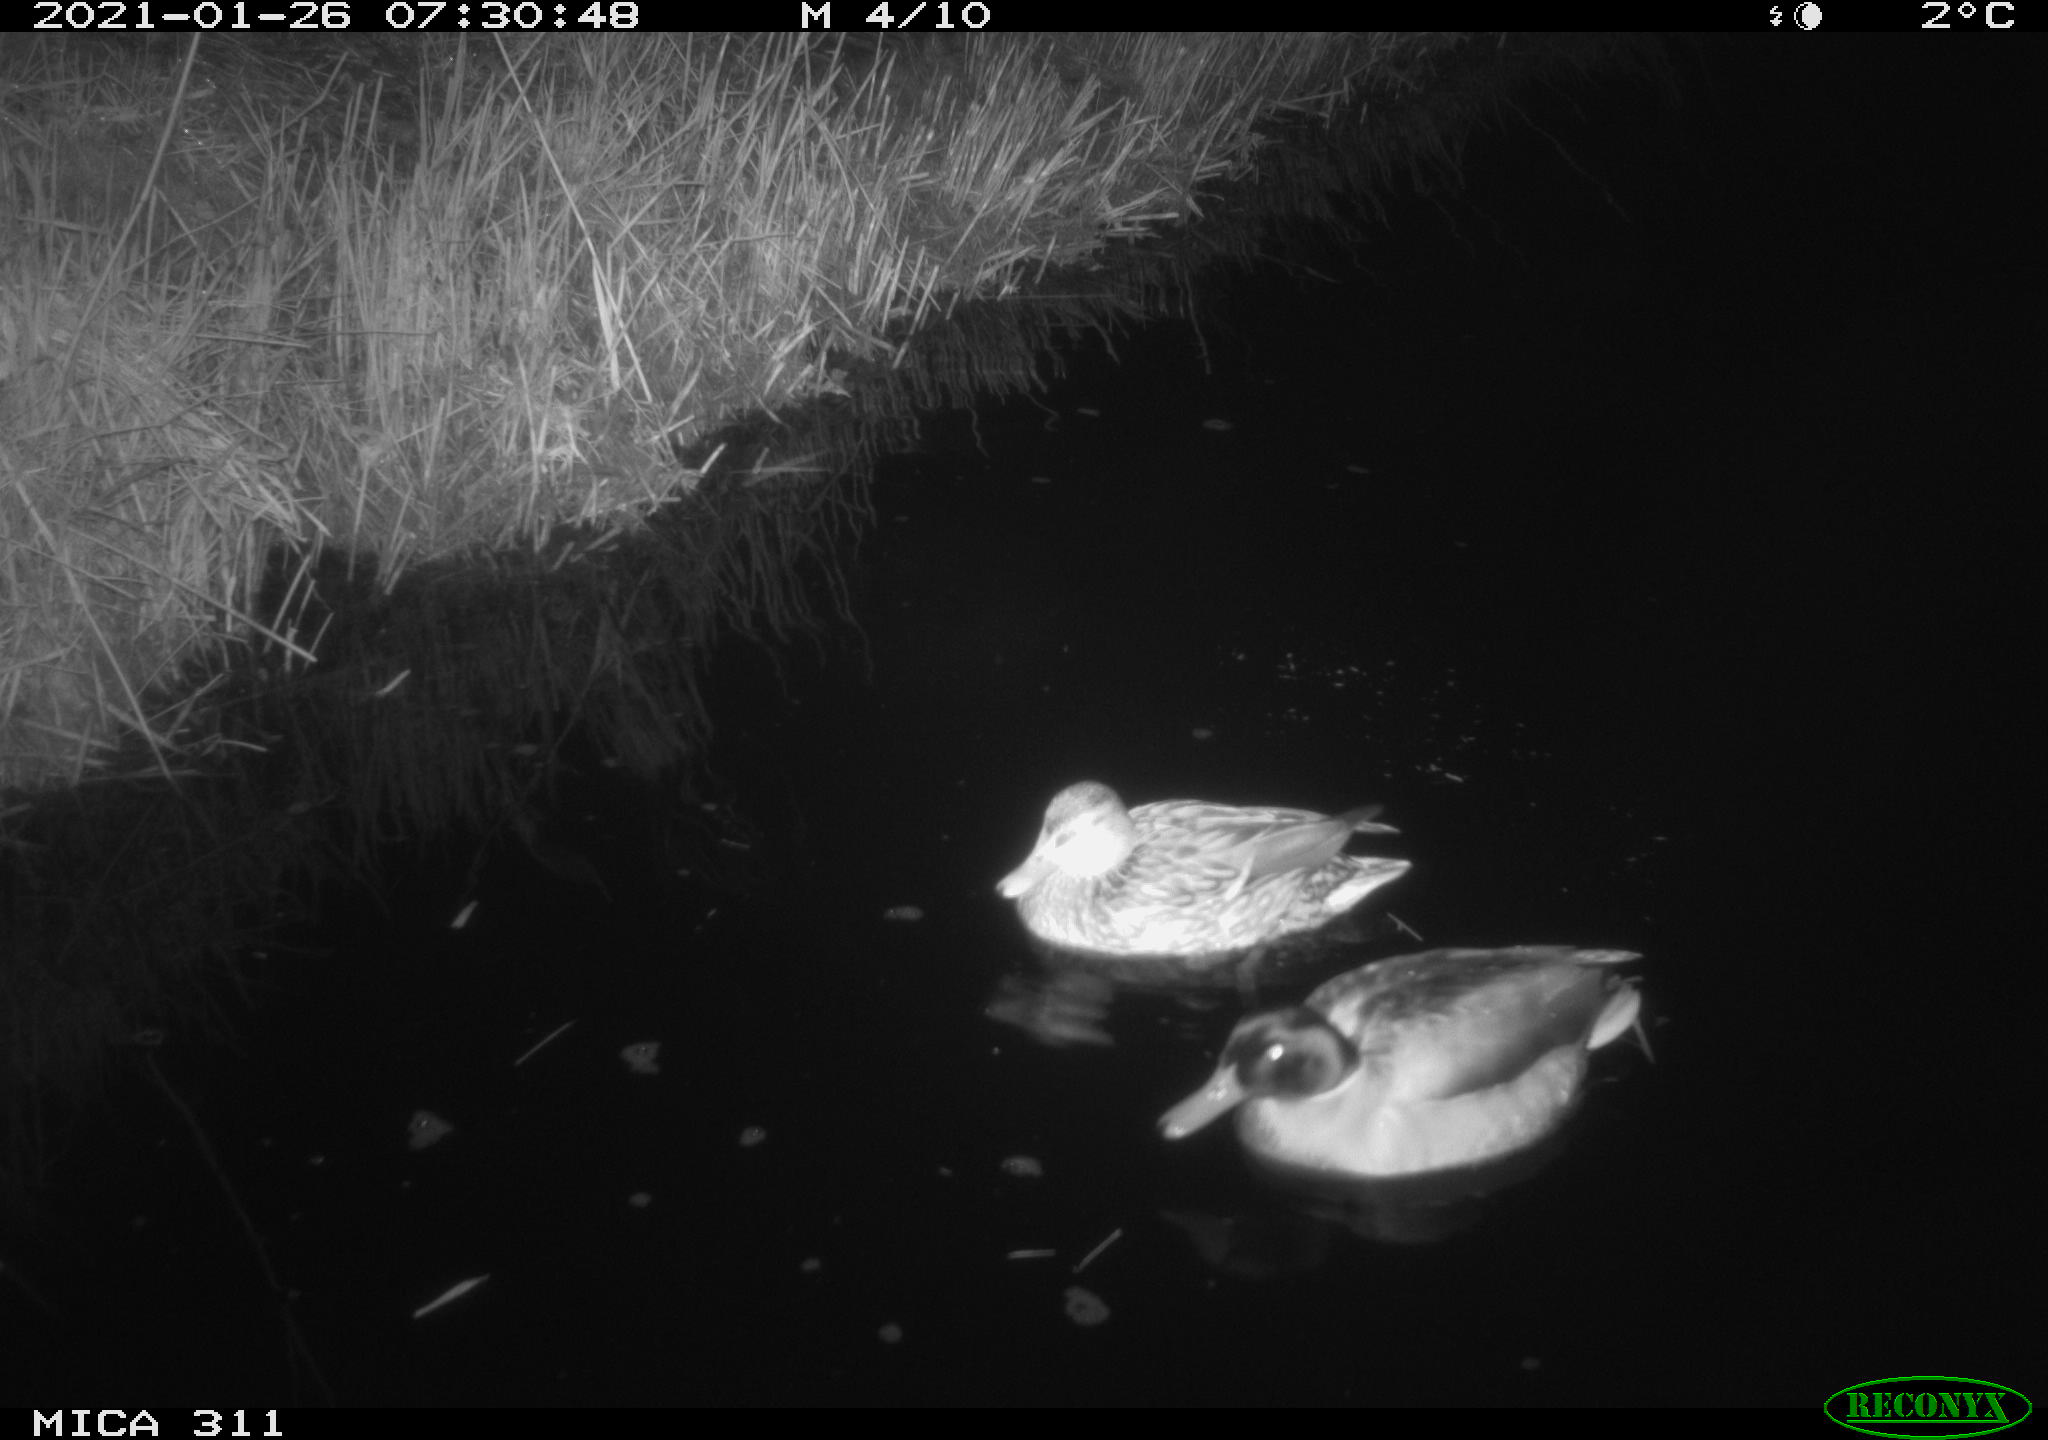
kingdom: Animalia
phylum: Chordata
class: Aves
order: Anseriformes
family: Anatidae
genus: Anas
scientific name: Anas
